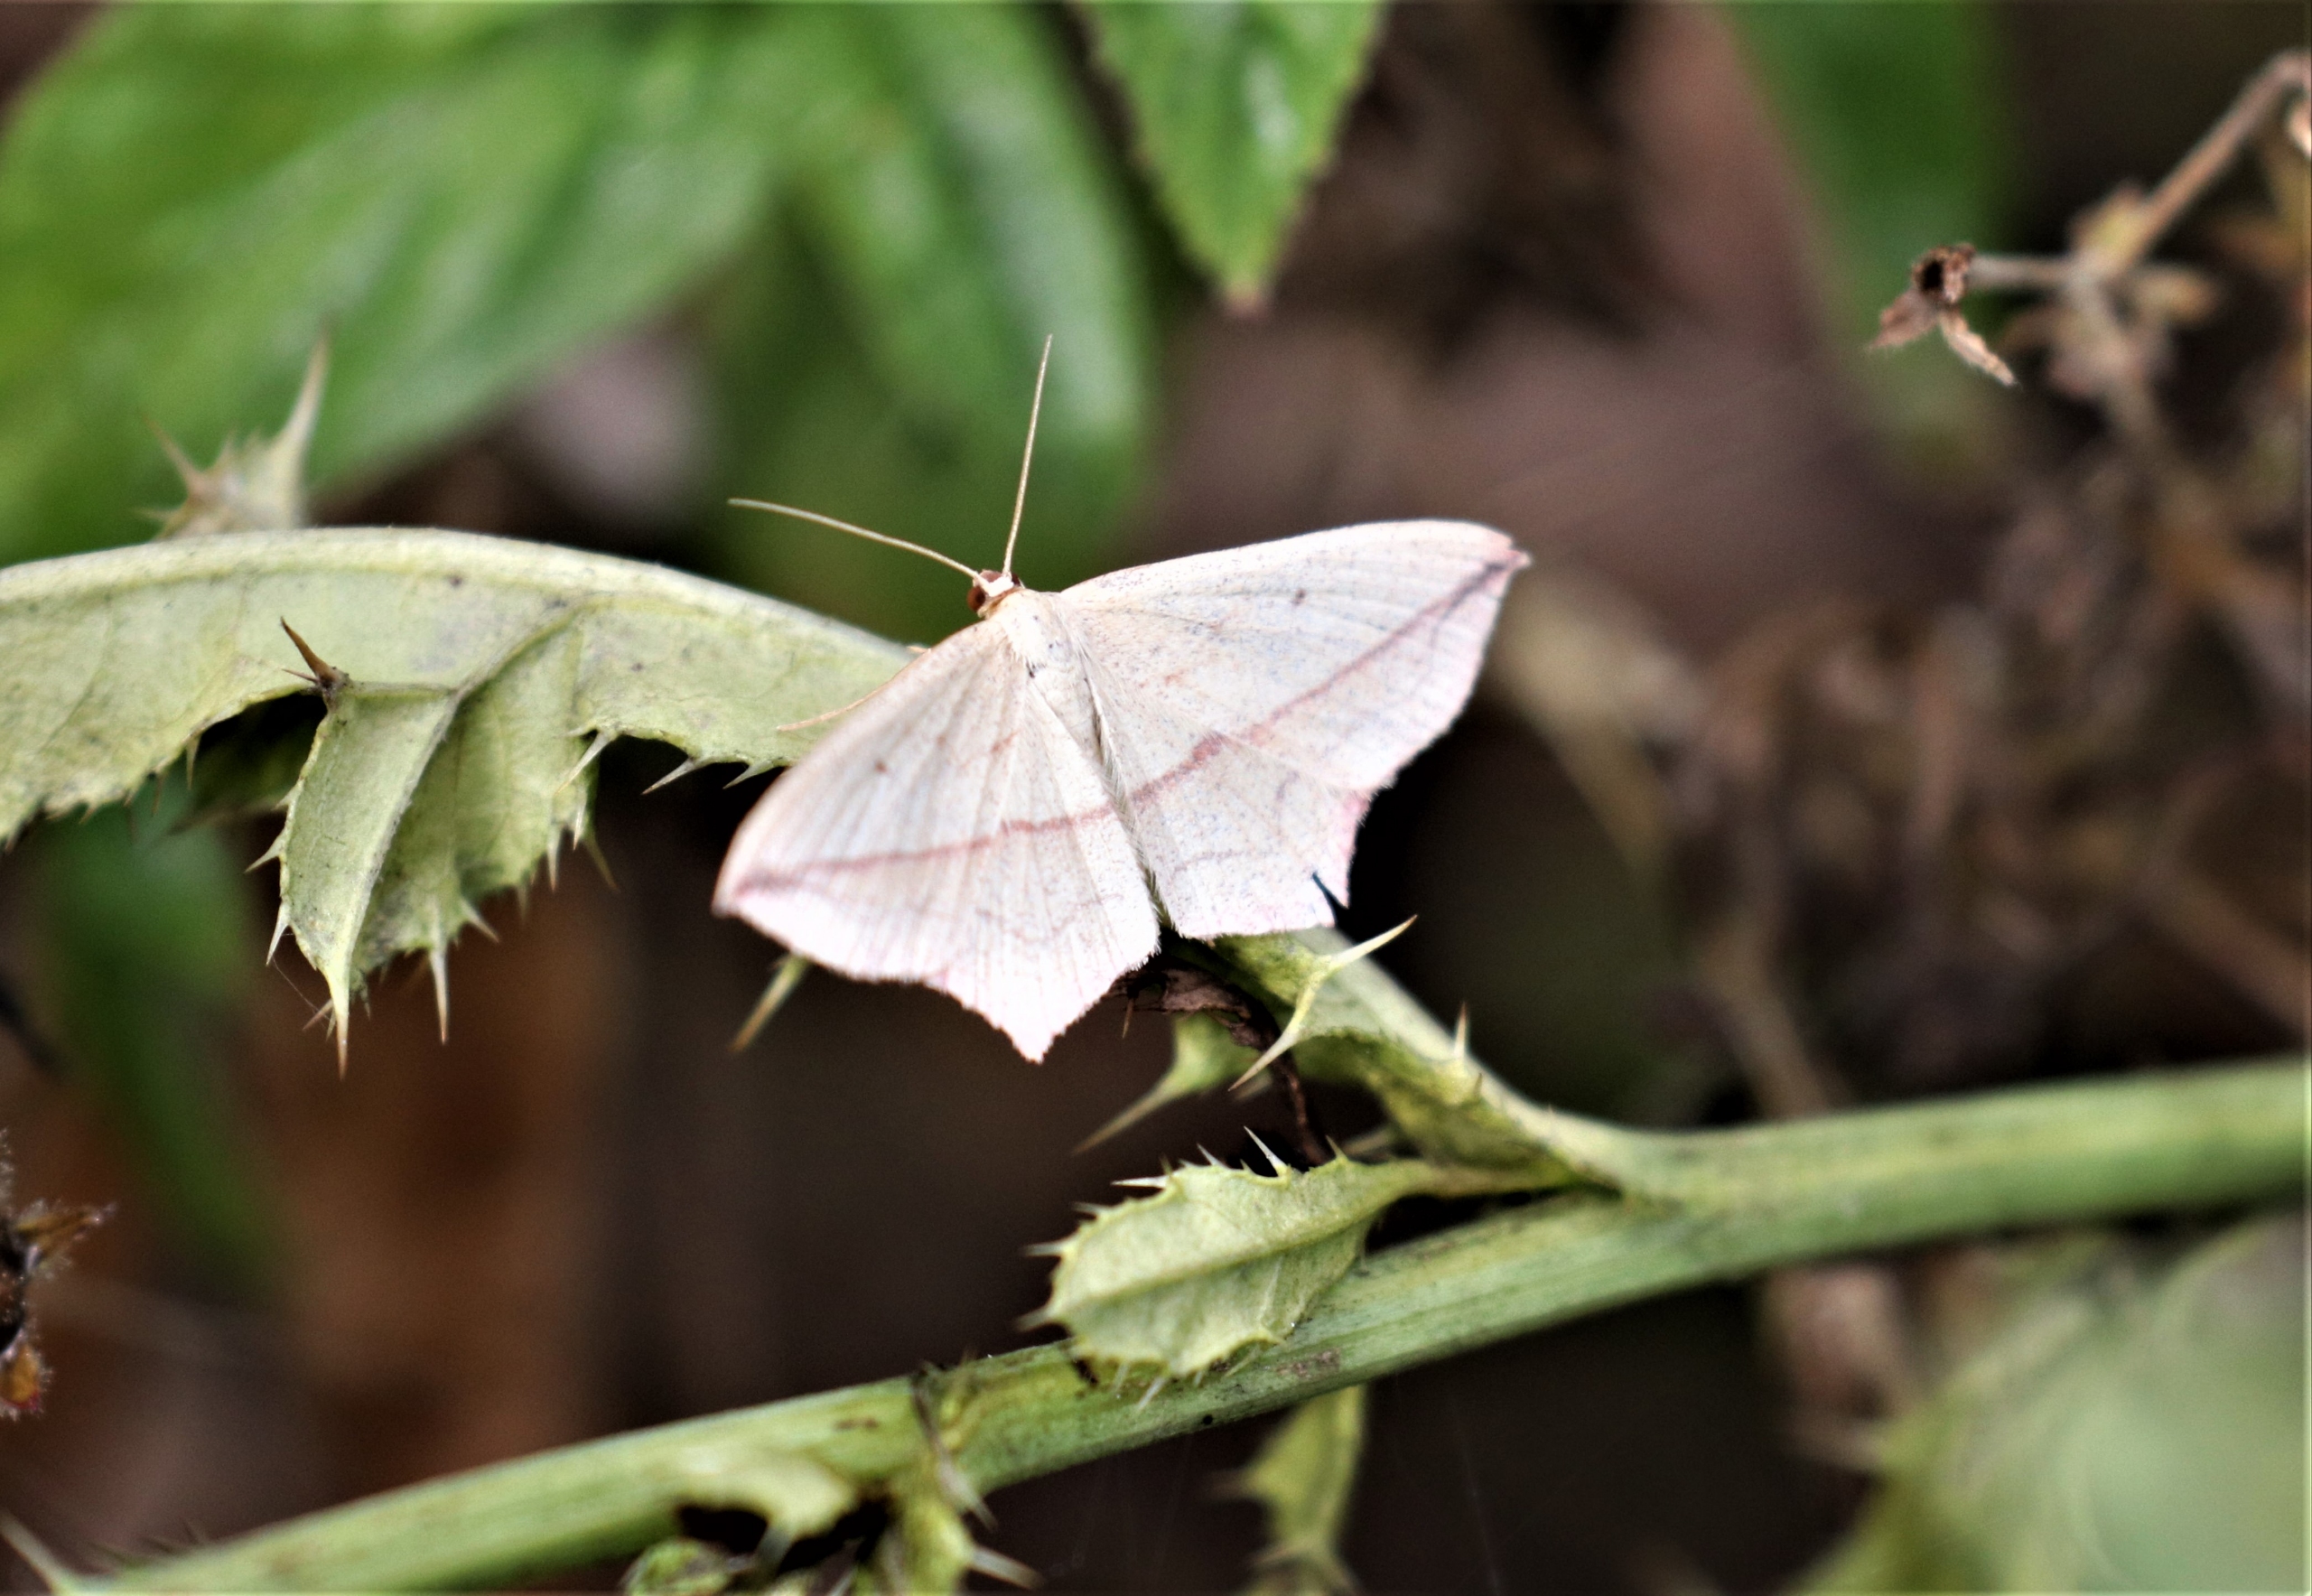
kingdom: Animalia
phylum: Arthropoda
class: Insecta
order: Lepidoptera
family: Geometridae
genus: Timandra
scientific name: Timandra comae
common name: Gul syremåler
